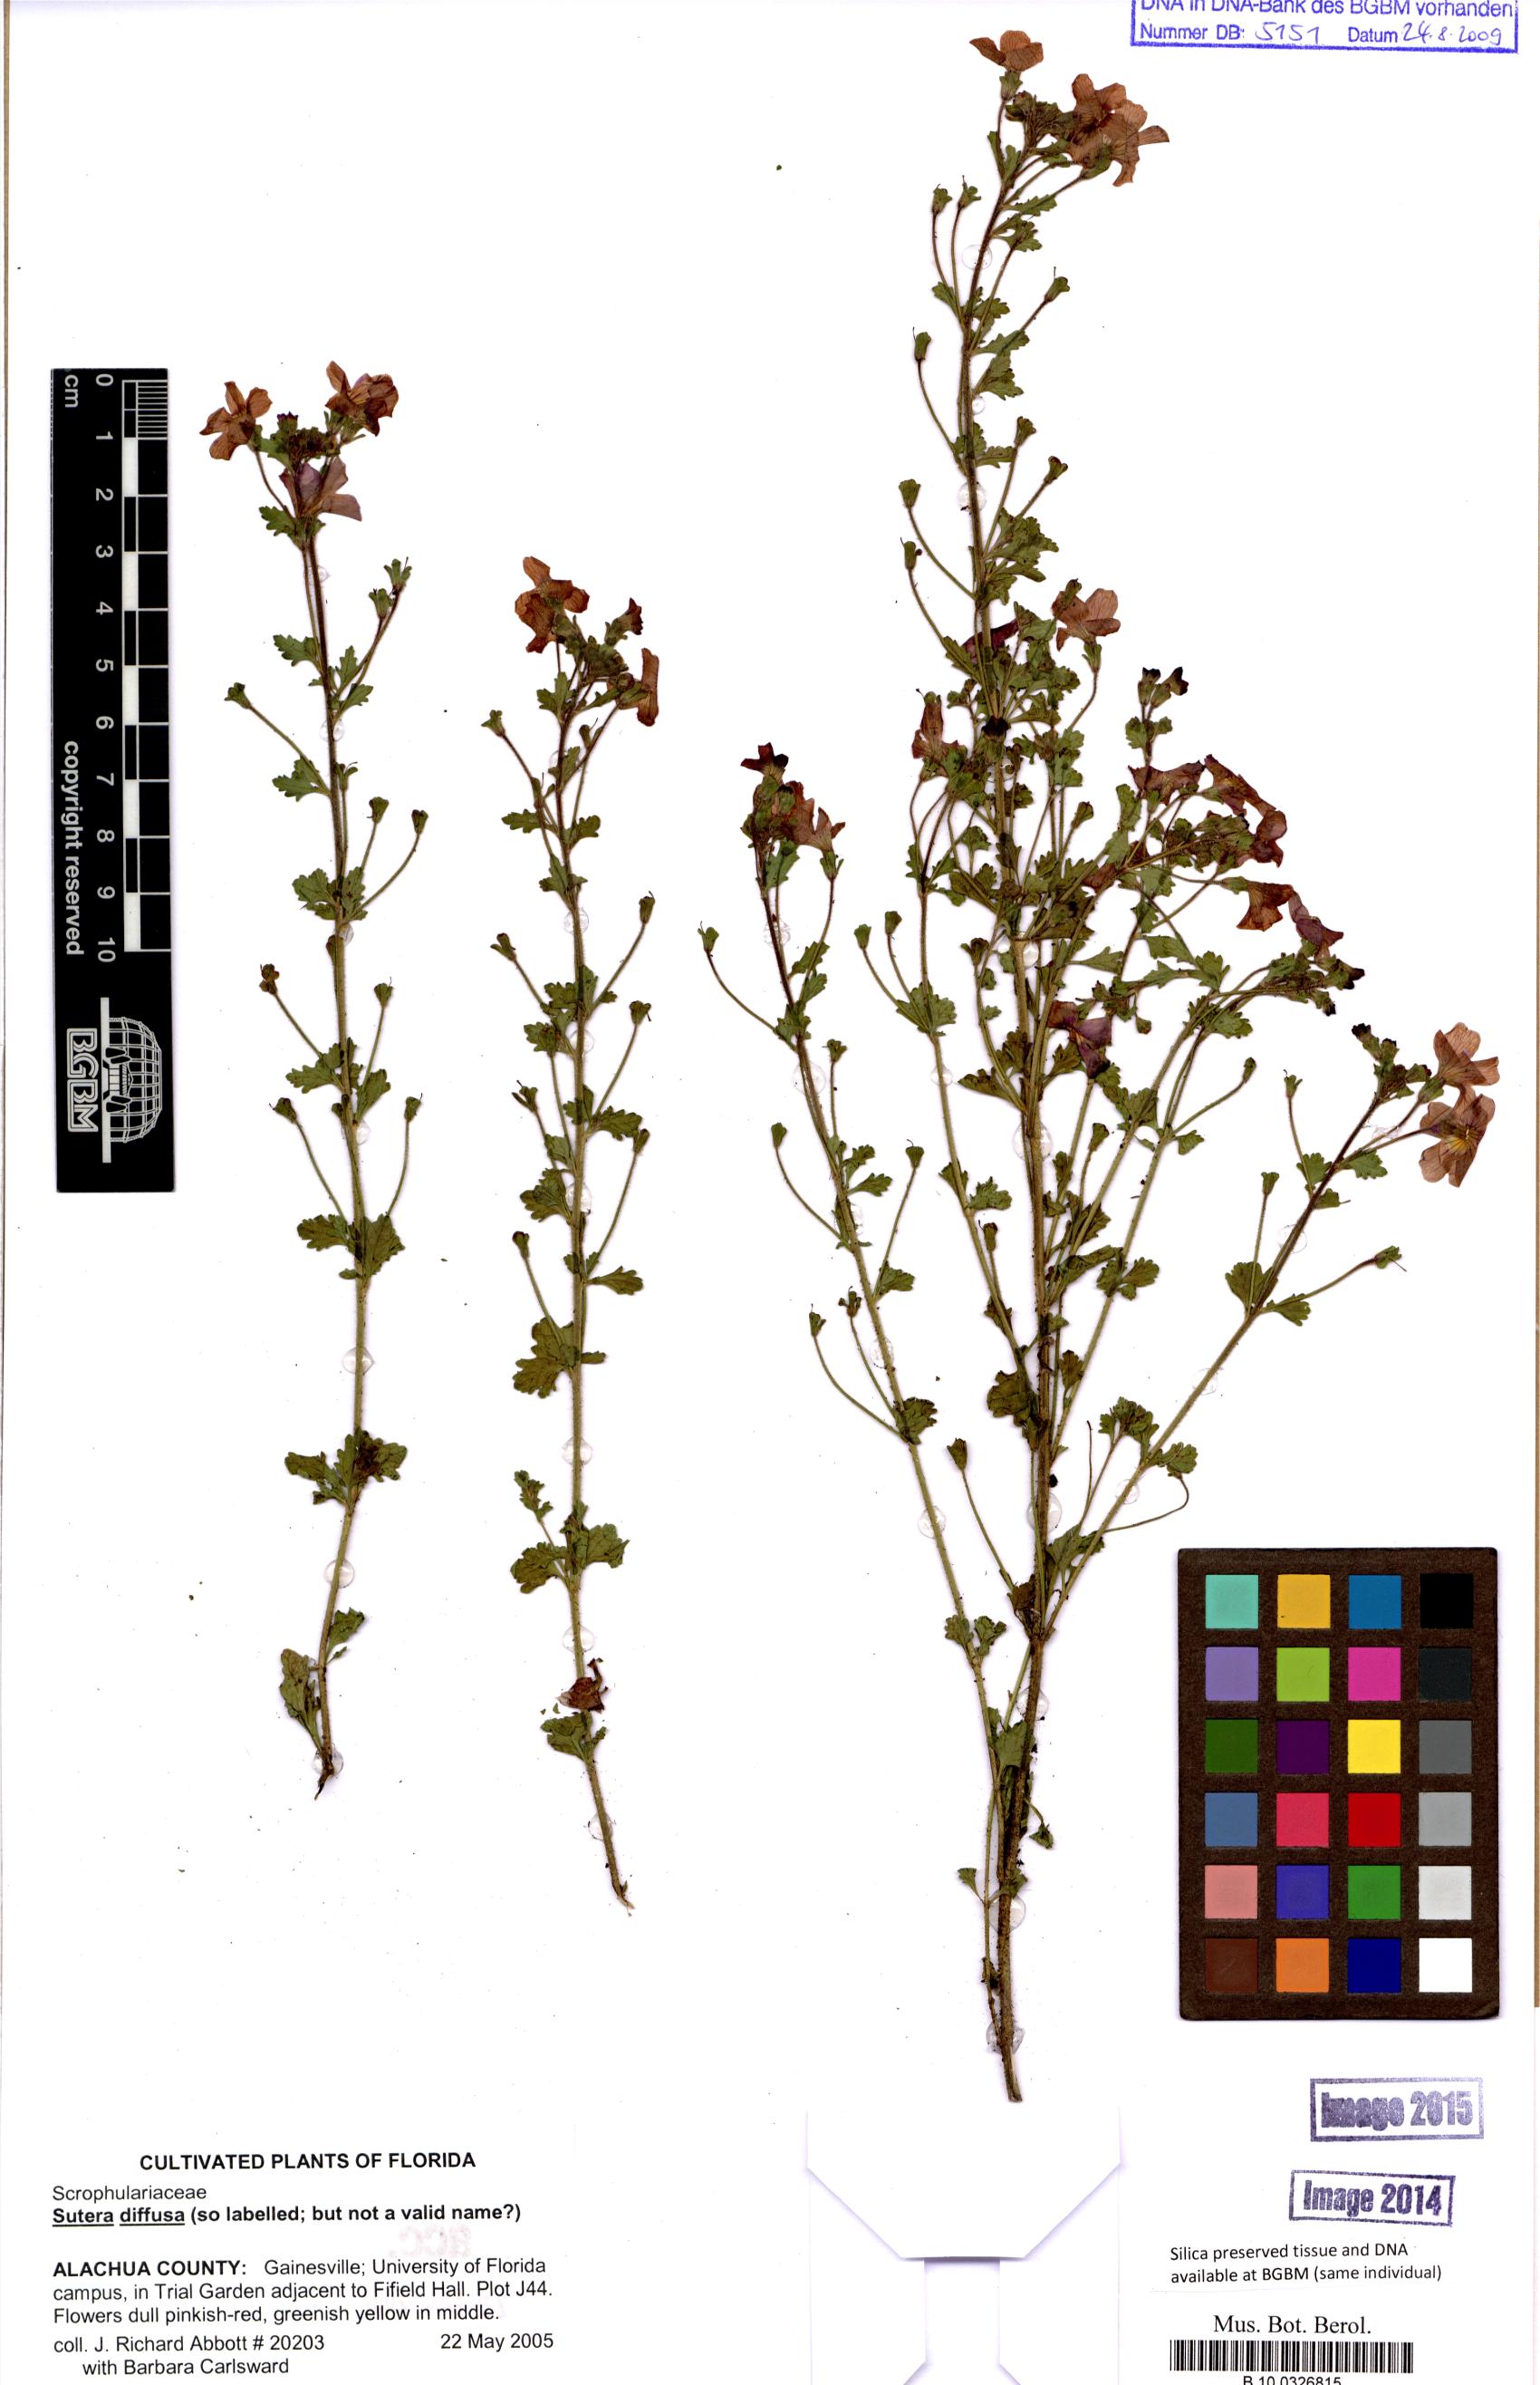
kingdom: Plantae
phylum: Tracheophyta
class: Magnoliopsida
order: Lamiales
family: Scrophulariaceae
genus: Sutera
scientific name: Sutera
